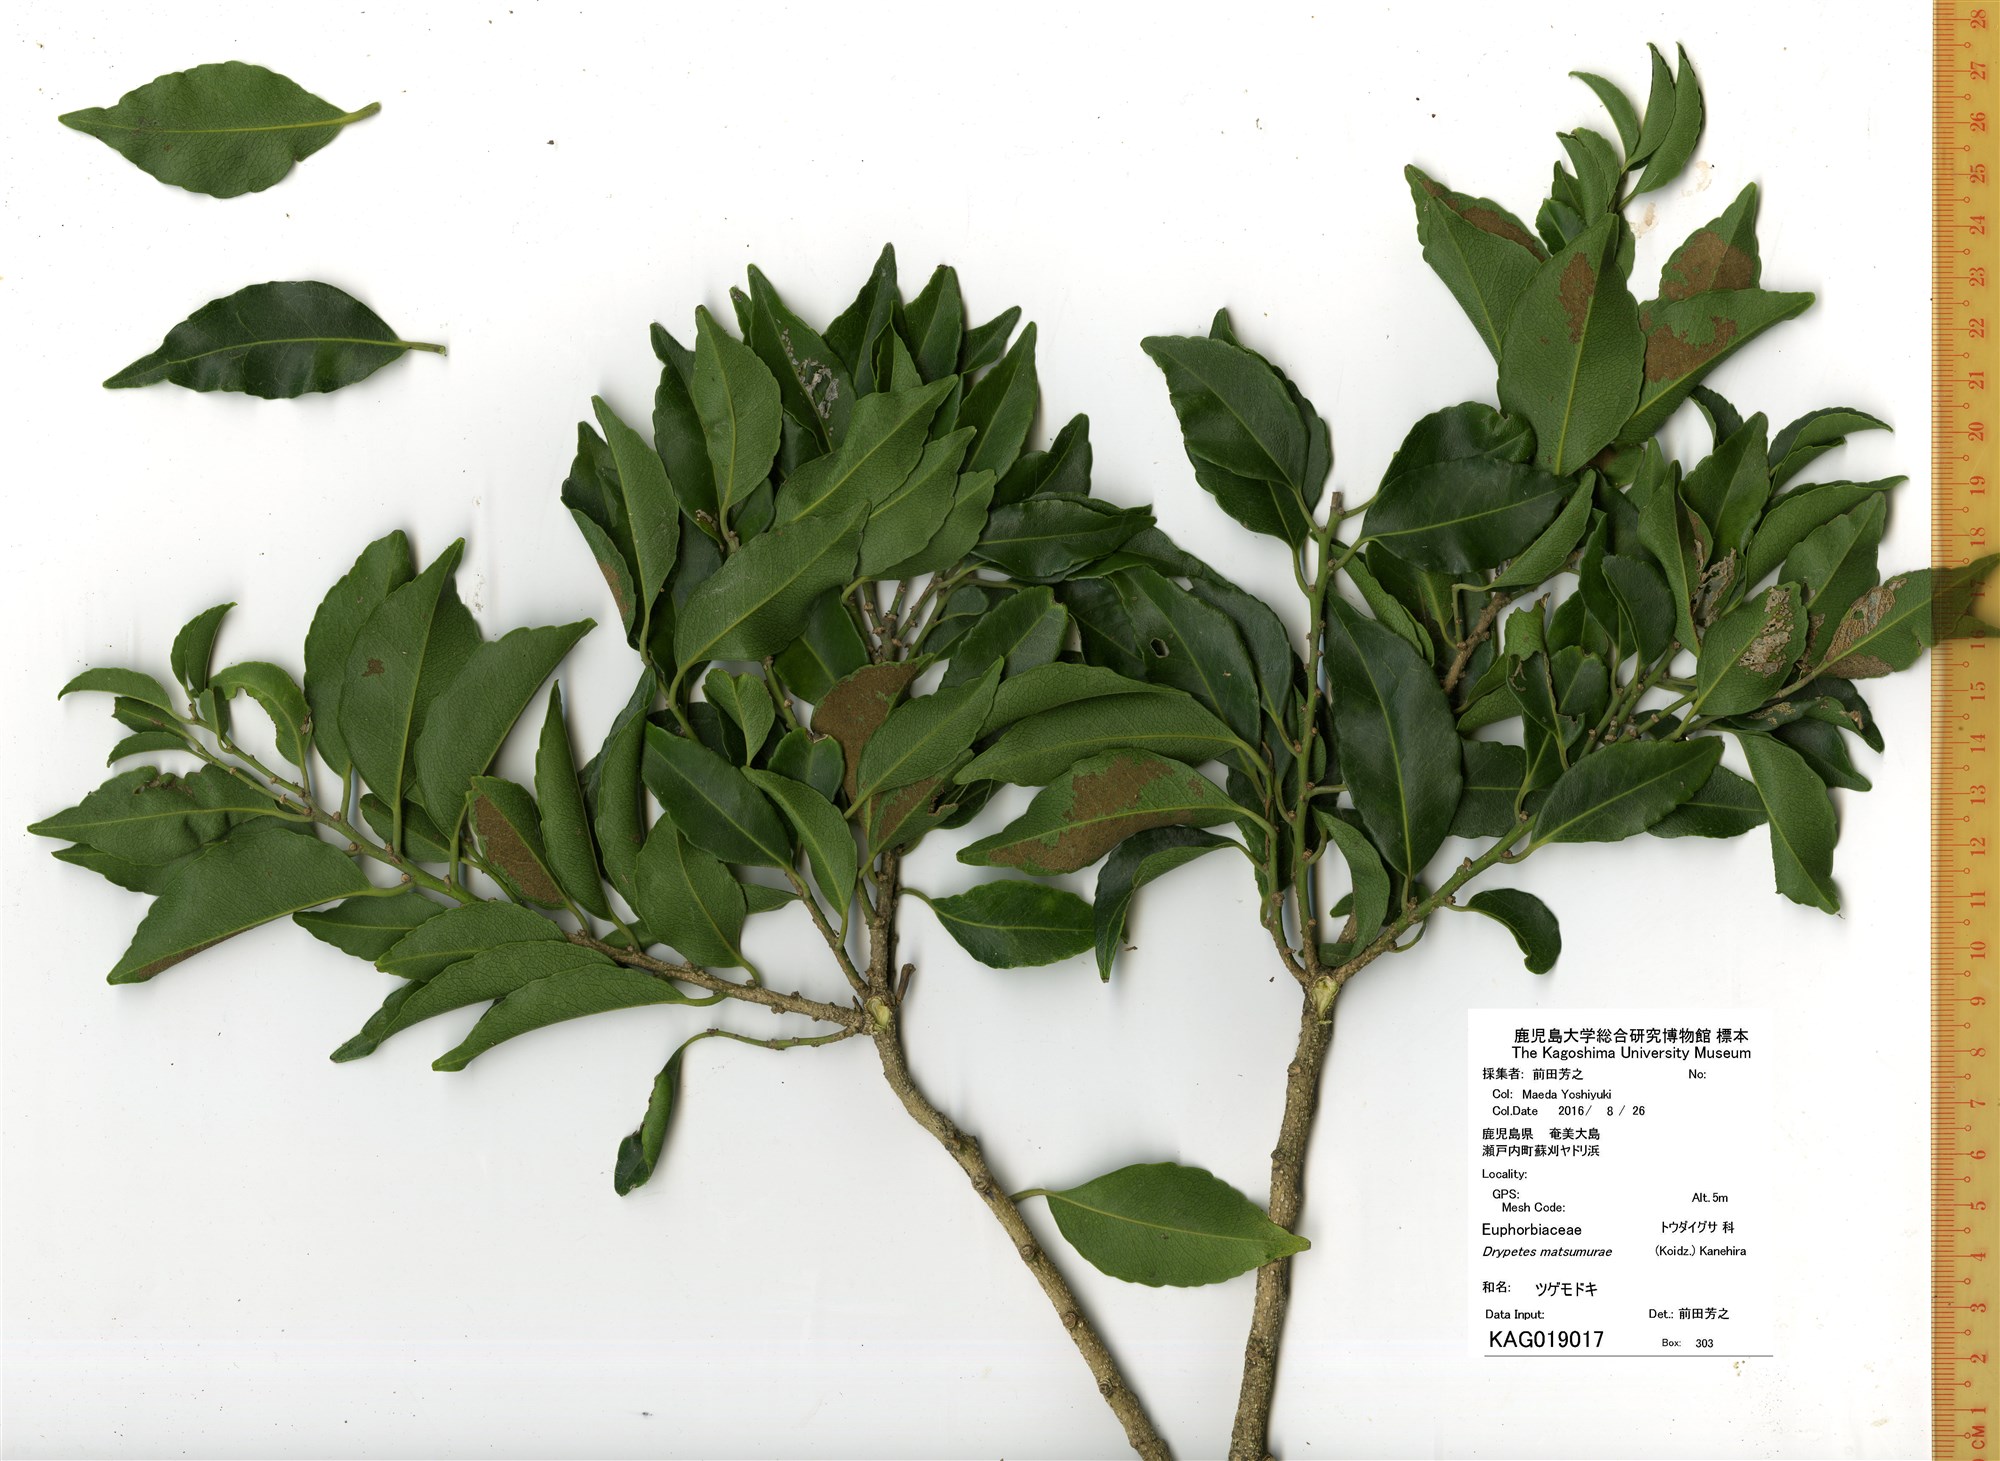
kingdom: Plantae
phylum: Tracheophyta
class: Magnoliopsida
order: Malpighiales
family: Putranjivaceae
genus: Putranjiva
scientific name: Putranjiva matsumurae
